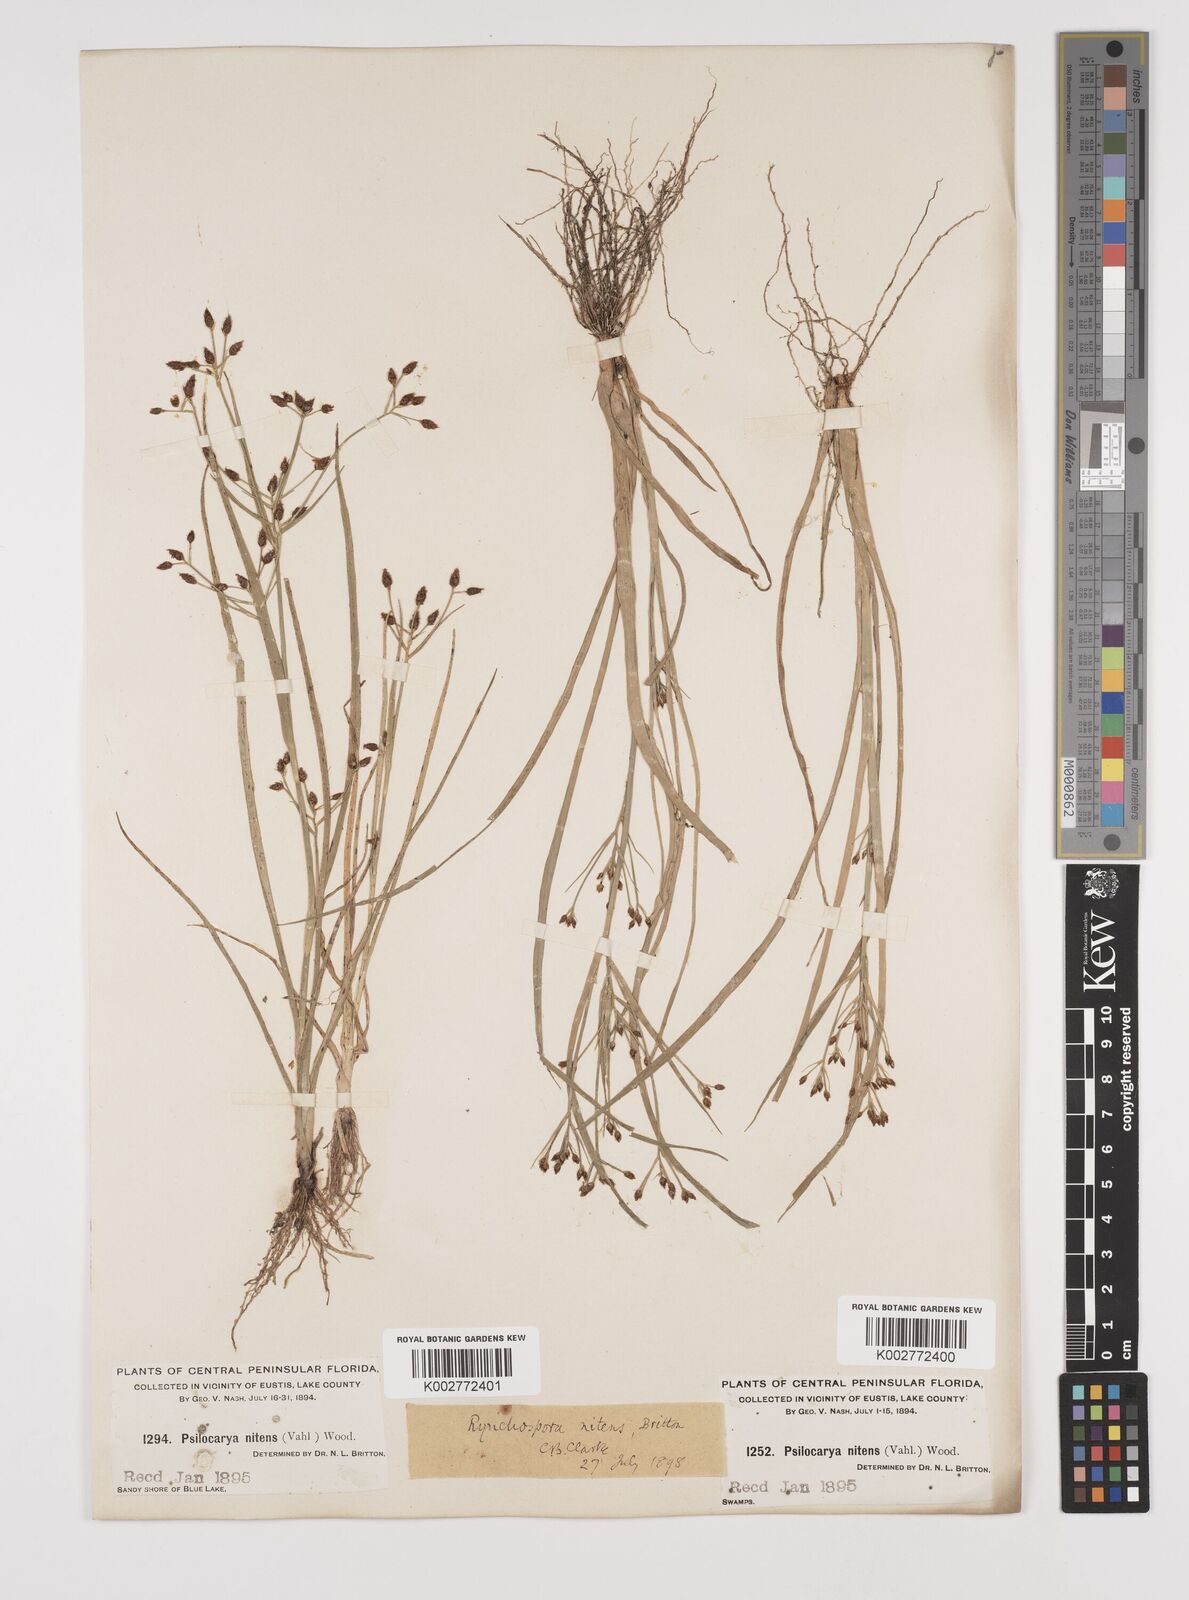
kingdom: Plantae
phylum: Tracheophyta
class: Liliopsida
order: Poales
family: Cyperaceae
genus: Rhynchospora
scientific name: Rhynchospora nitens
